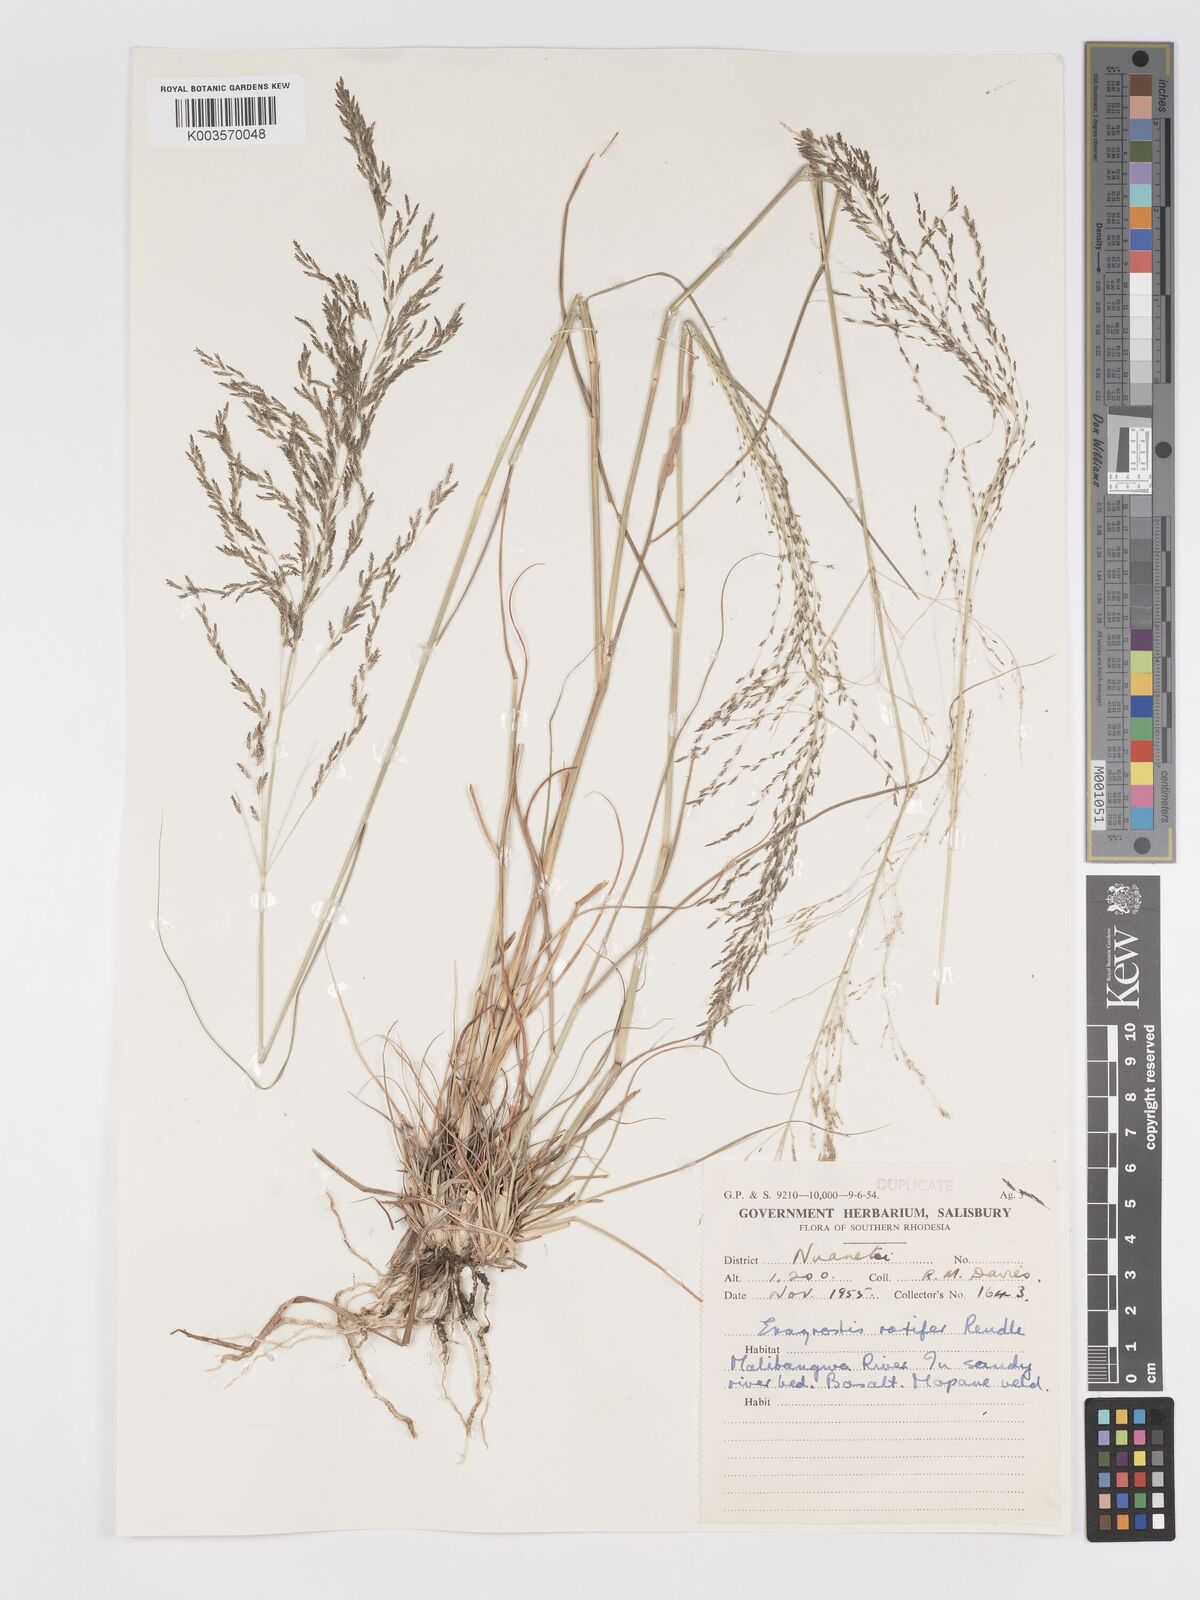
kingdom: Plantae
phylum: Tracheophyta
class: Liliopsida
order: Poales
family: Poaceae
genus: Eragrostis
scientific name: Eragrostis rotifer
